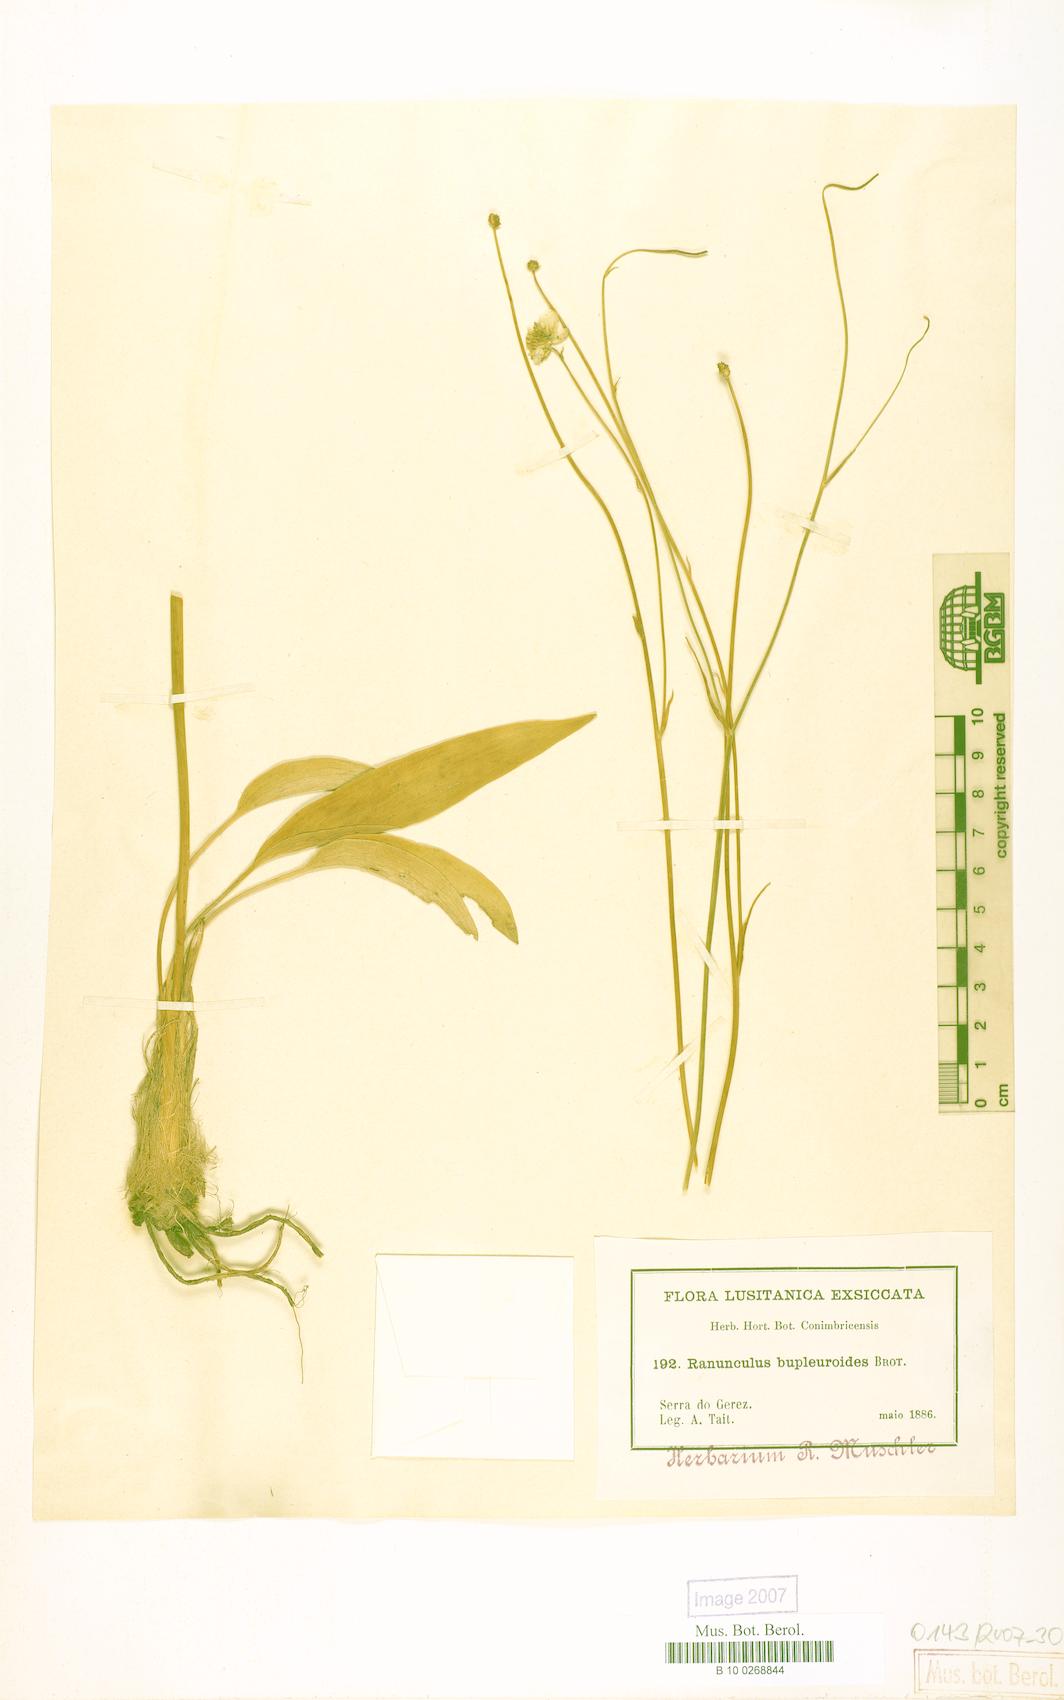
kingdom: Plantae
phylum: Tracheophyta
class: Magnoliopsida
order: Ranunculales
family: Ranunculaceae
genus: Ranunculus
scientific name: Ranunculus bupleuroides
